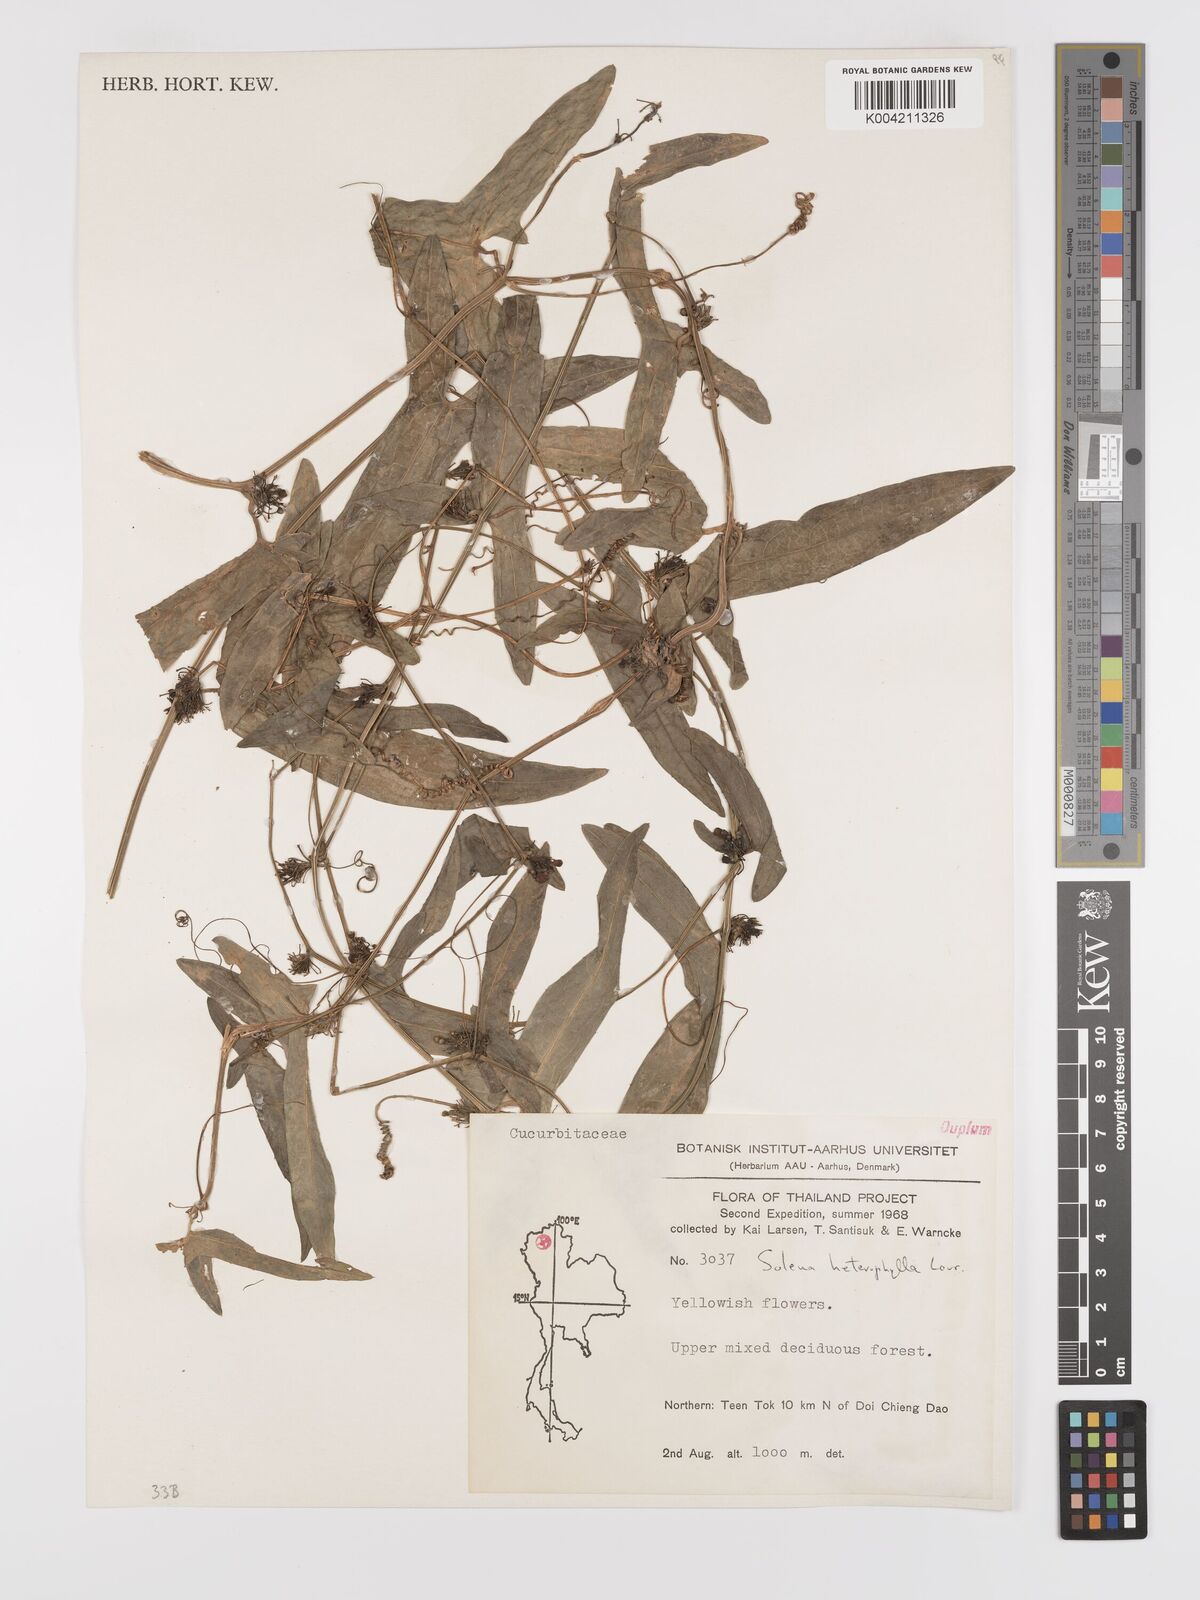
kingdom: Plantae
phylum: Tracheophyta
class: Magnoliopsida
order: Cucurbitales
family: Cucurbitaceae
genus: Solena
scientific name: Solena amplexicaulis
